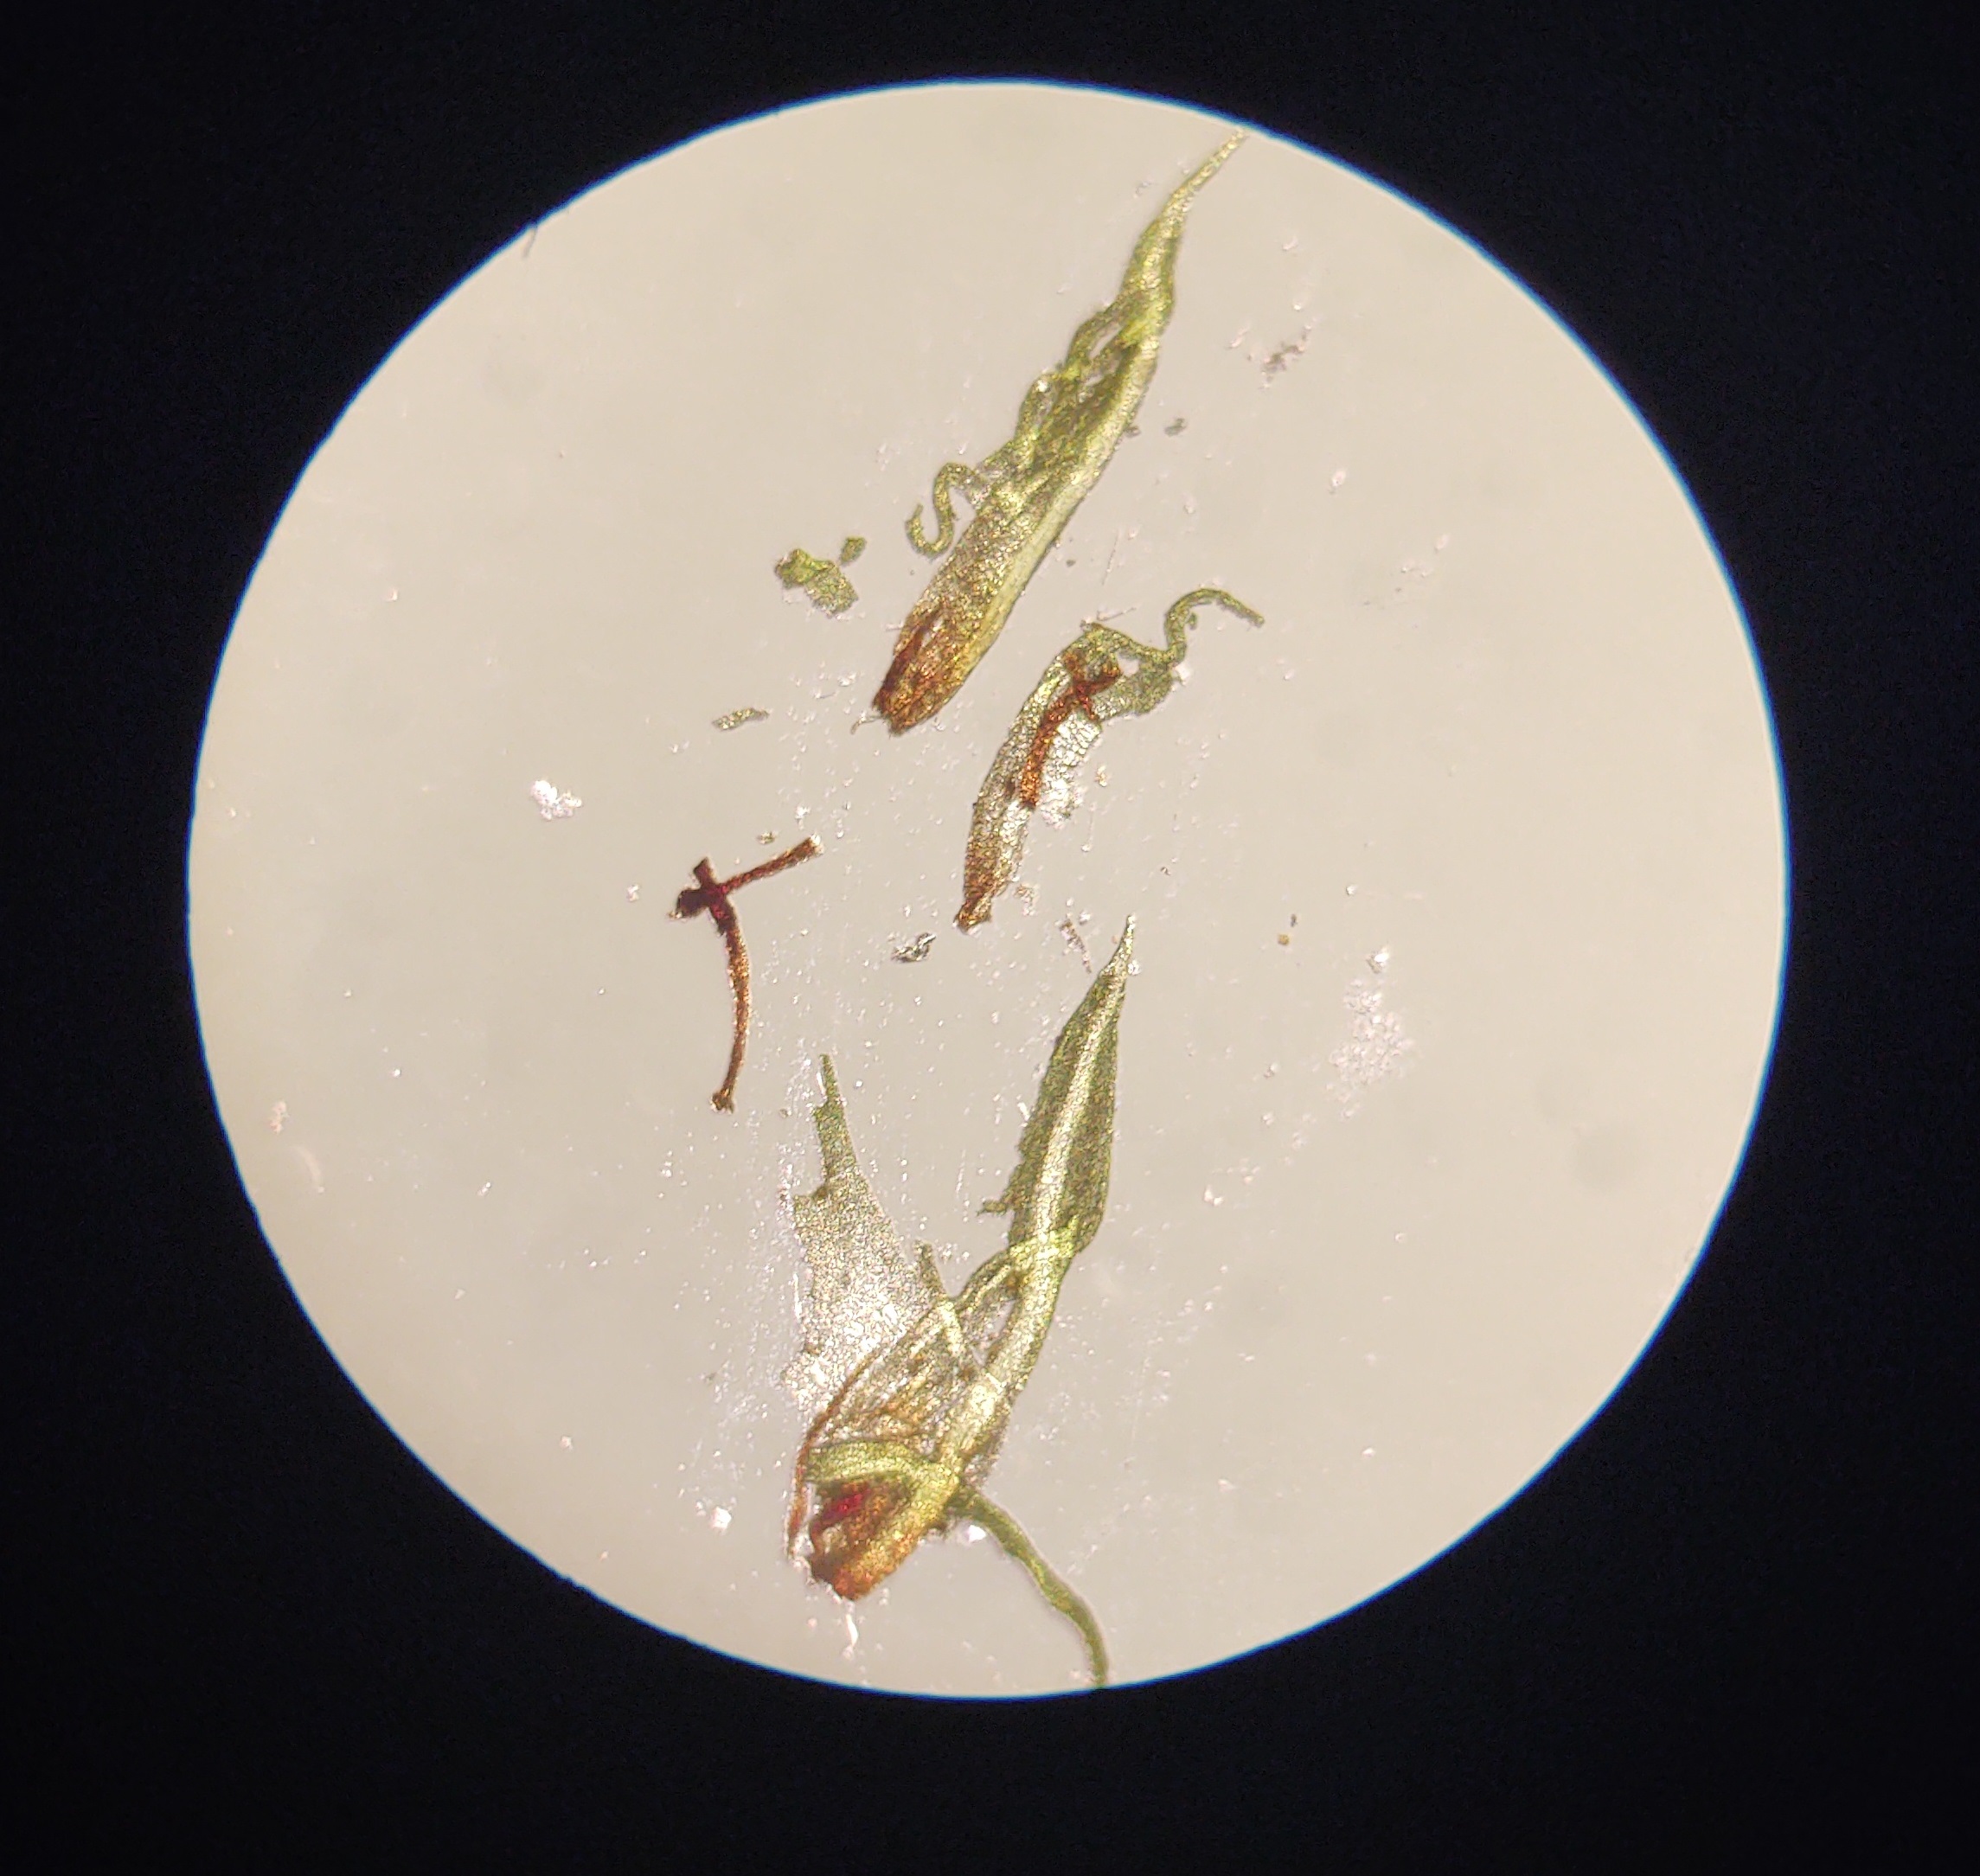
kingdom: Plantae
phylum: Bryophyta
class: Bryopsida
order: Pottiales
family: Pottiaceae
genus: Barbula
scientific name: Barbula unguiculata
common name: Almindelig skægtand
